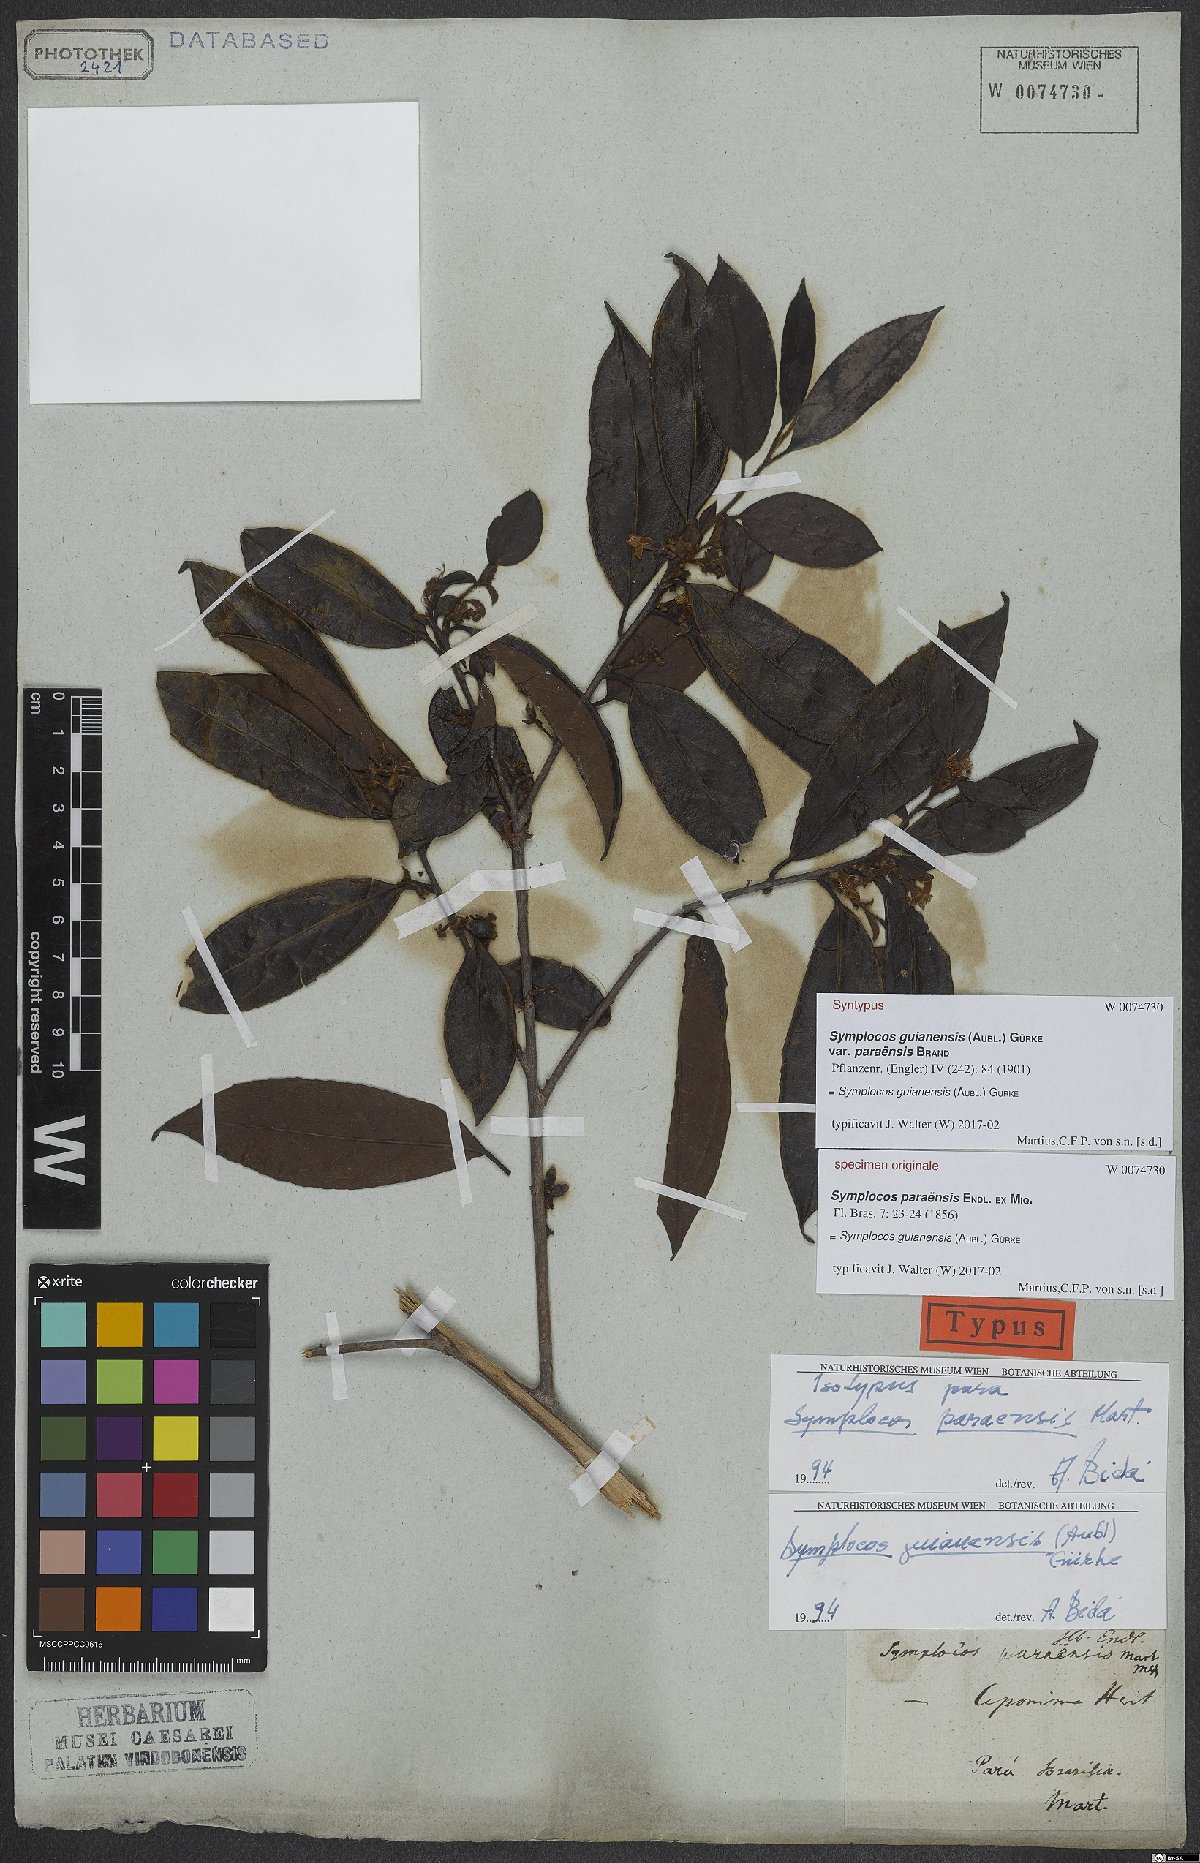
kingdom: Plantae
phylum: Tracheophyta
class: Magnoliopsida
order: Ericales
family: Symplocaceae
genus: Symplocos
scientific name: Symplocos guianensis
